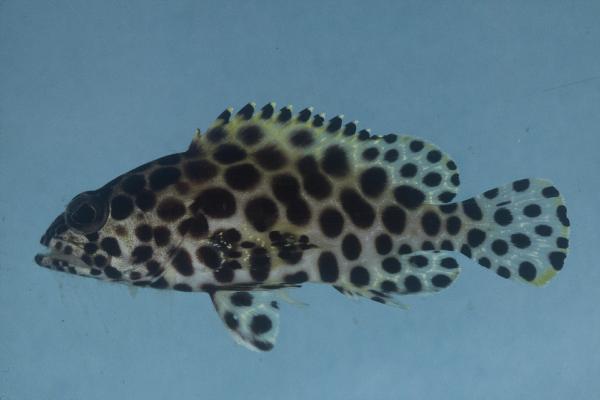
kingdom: Animalia
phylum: Chordata
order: Perciformes
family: Serranidae
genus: Epinephelus
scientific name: Epinephelus merra
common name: Honeycomb grouper
